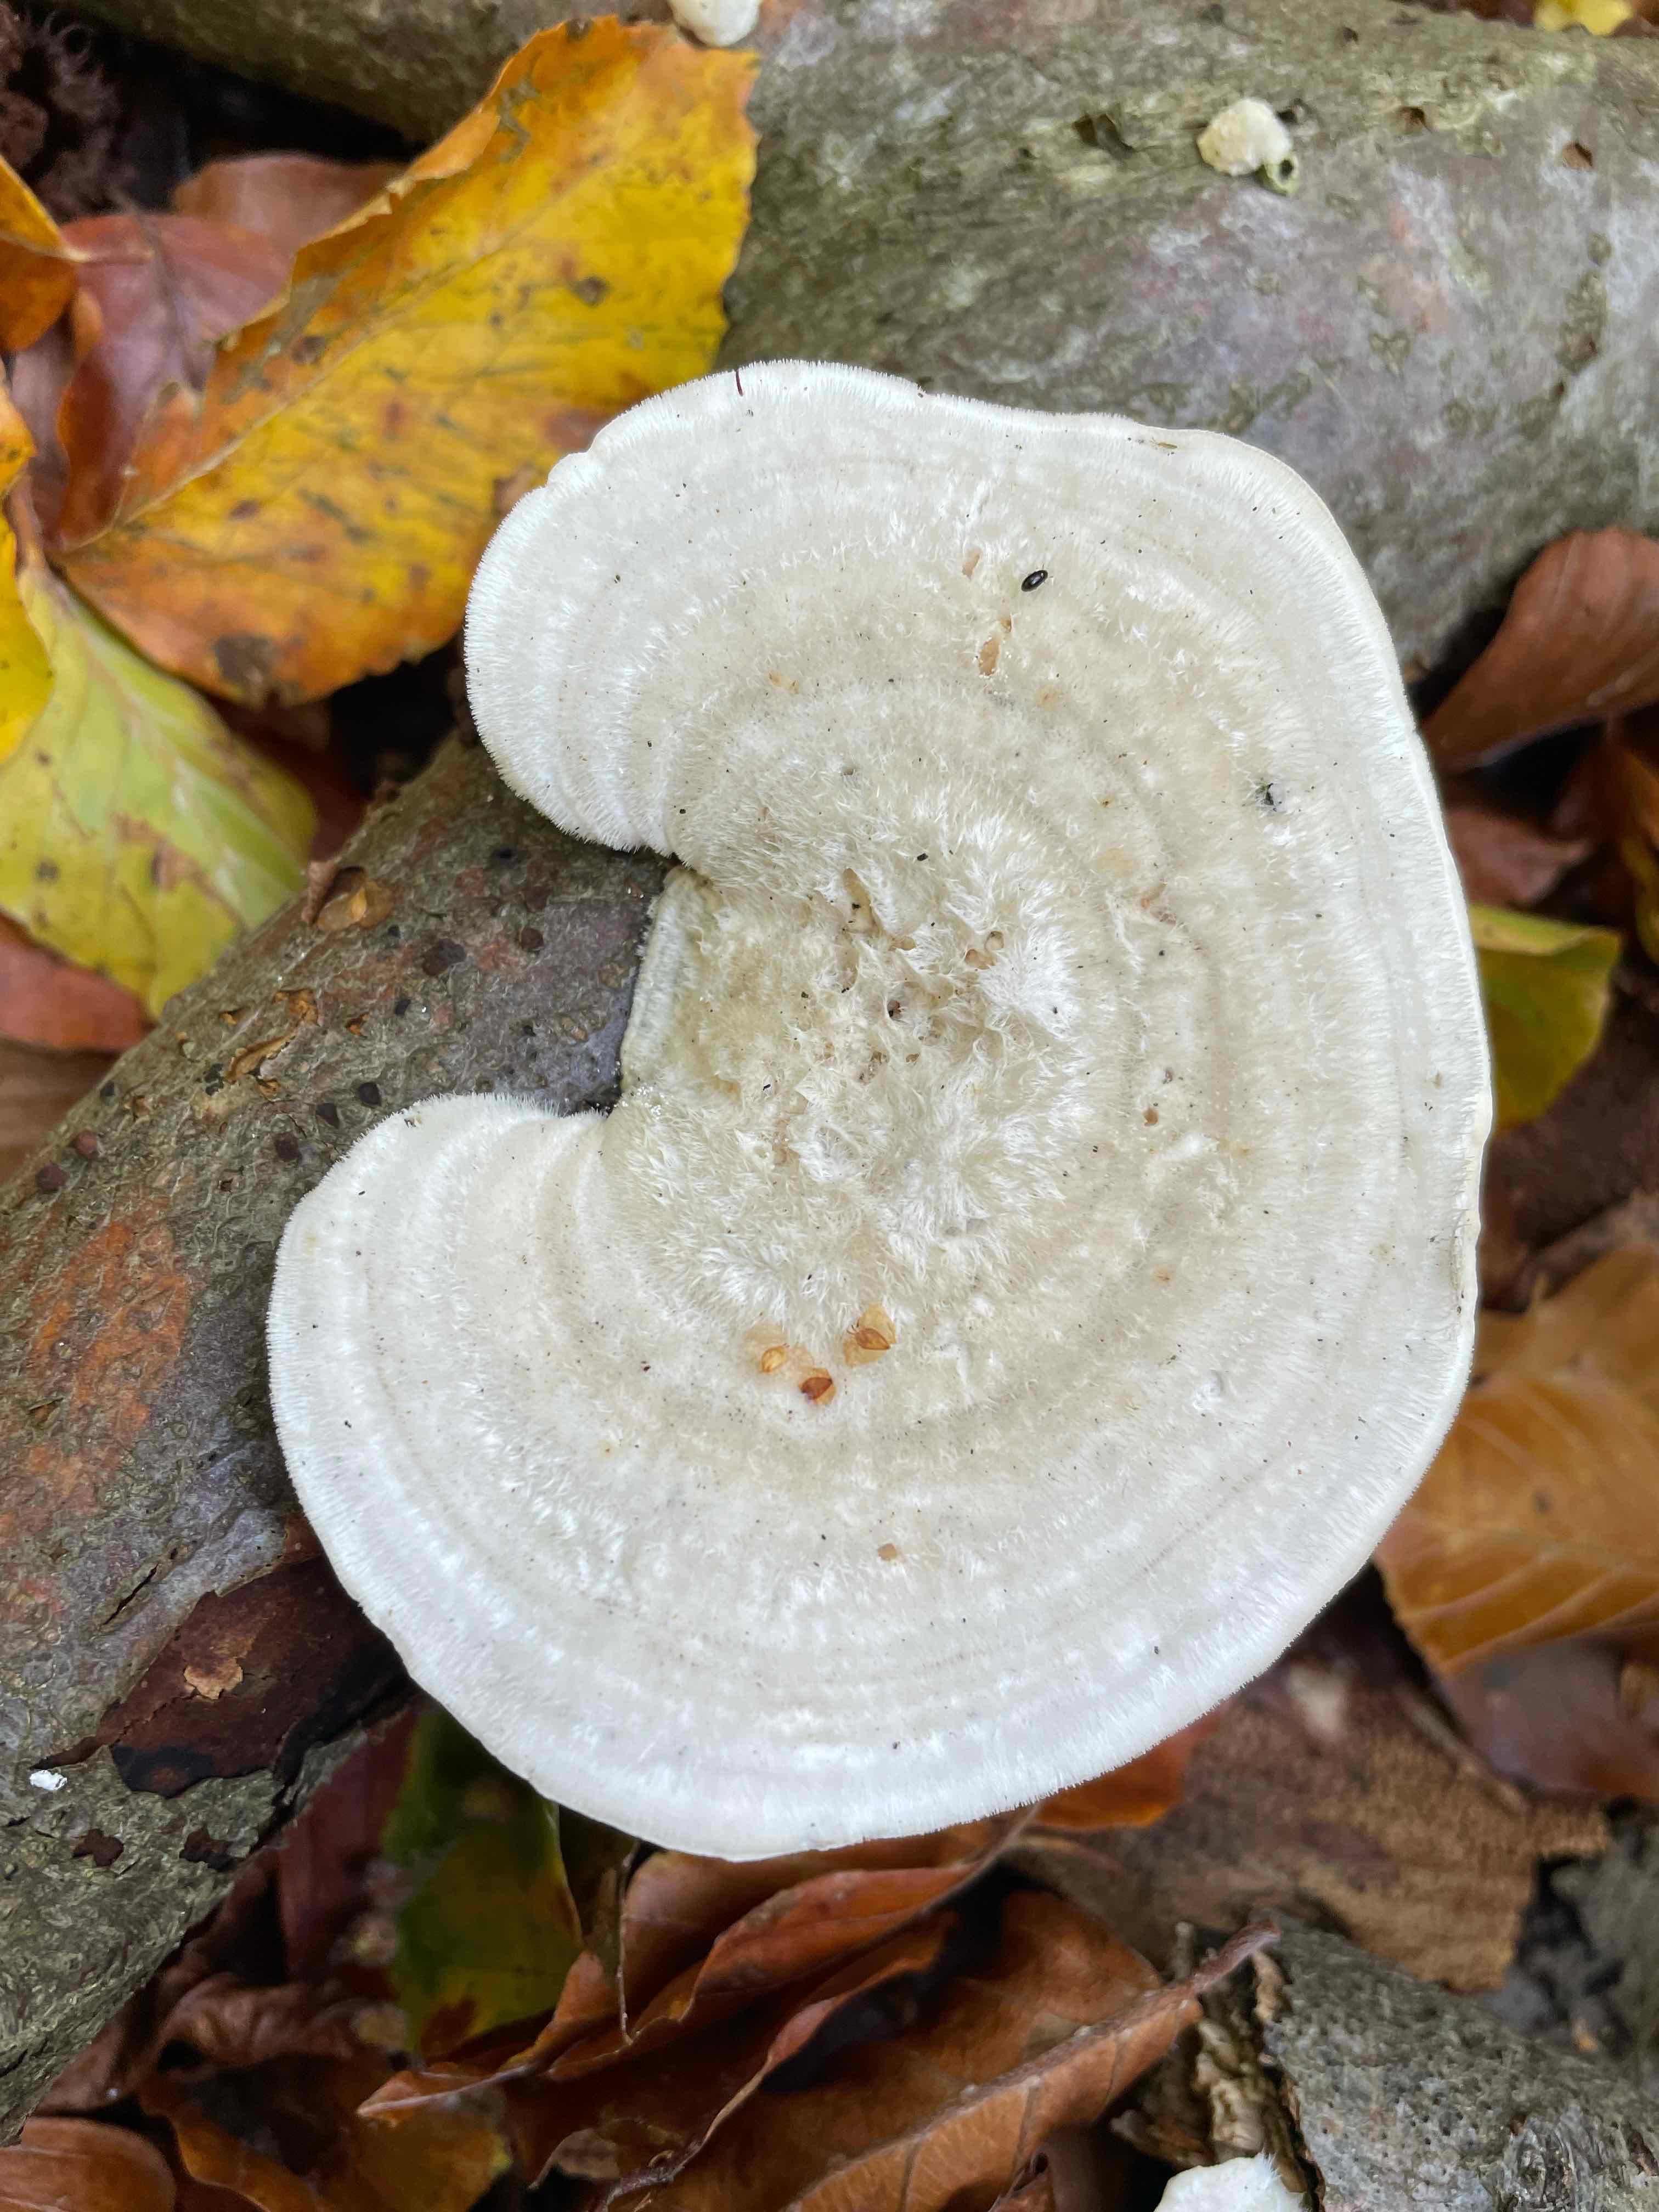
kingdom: Fungi
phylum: Basidiomycota
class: Agaricomycetes
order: Polyporales
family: Polyporaceae
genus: Trametes
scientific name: Trametes hirsuta
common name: håret læderporesvamp
